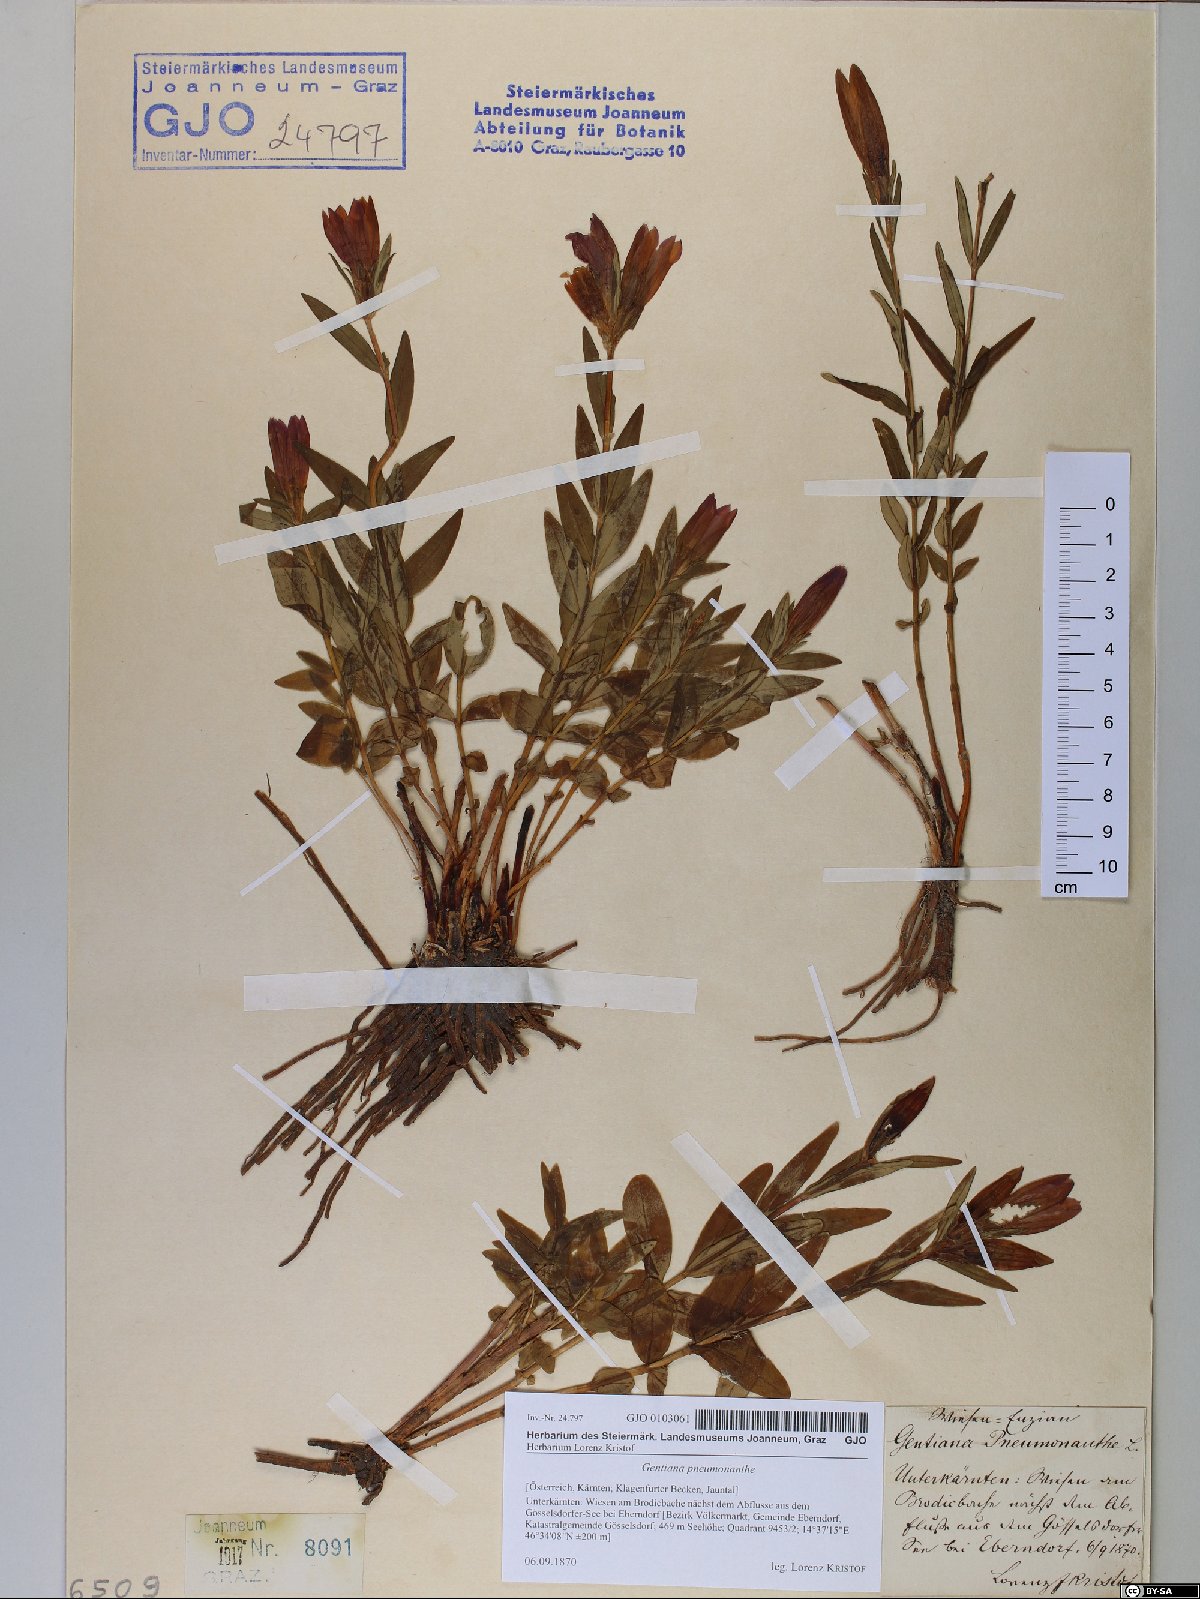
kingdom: Plantae
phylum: Tracheophyta
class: Magnoliopsida
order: Gentianales
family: Gentianaceae
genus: Gentiana
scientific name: Gentiana pneumonanthe
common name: Marsh gentian
